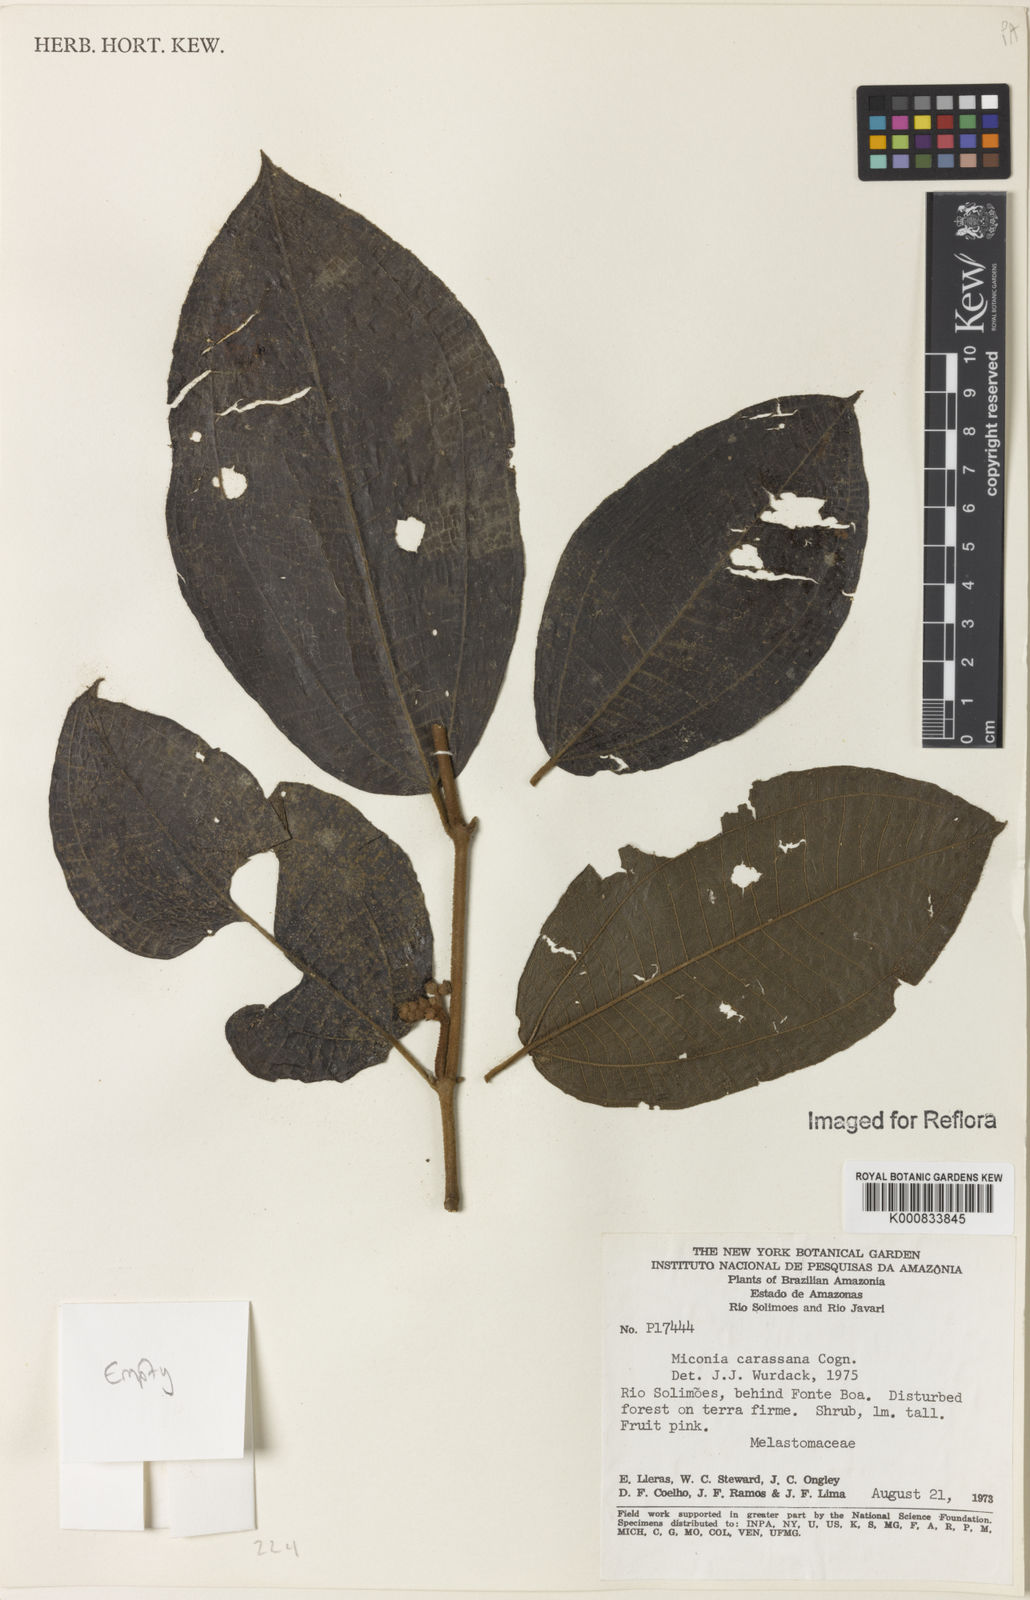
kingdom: Plantae
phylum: Tracheophyta
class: Magnoliopsida
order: Myrtales
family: Melastomataceae
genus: Miconia
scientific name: Miconia carassana
